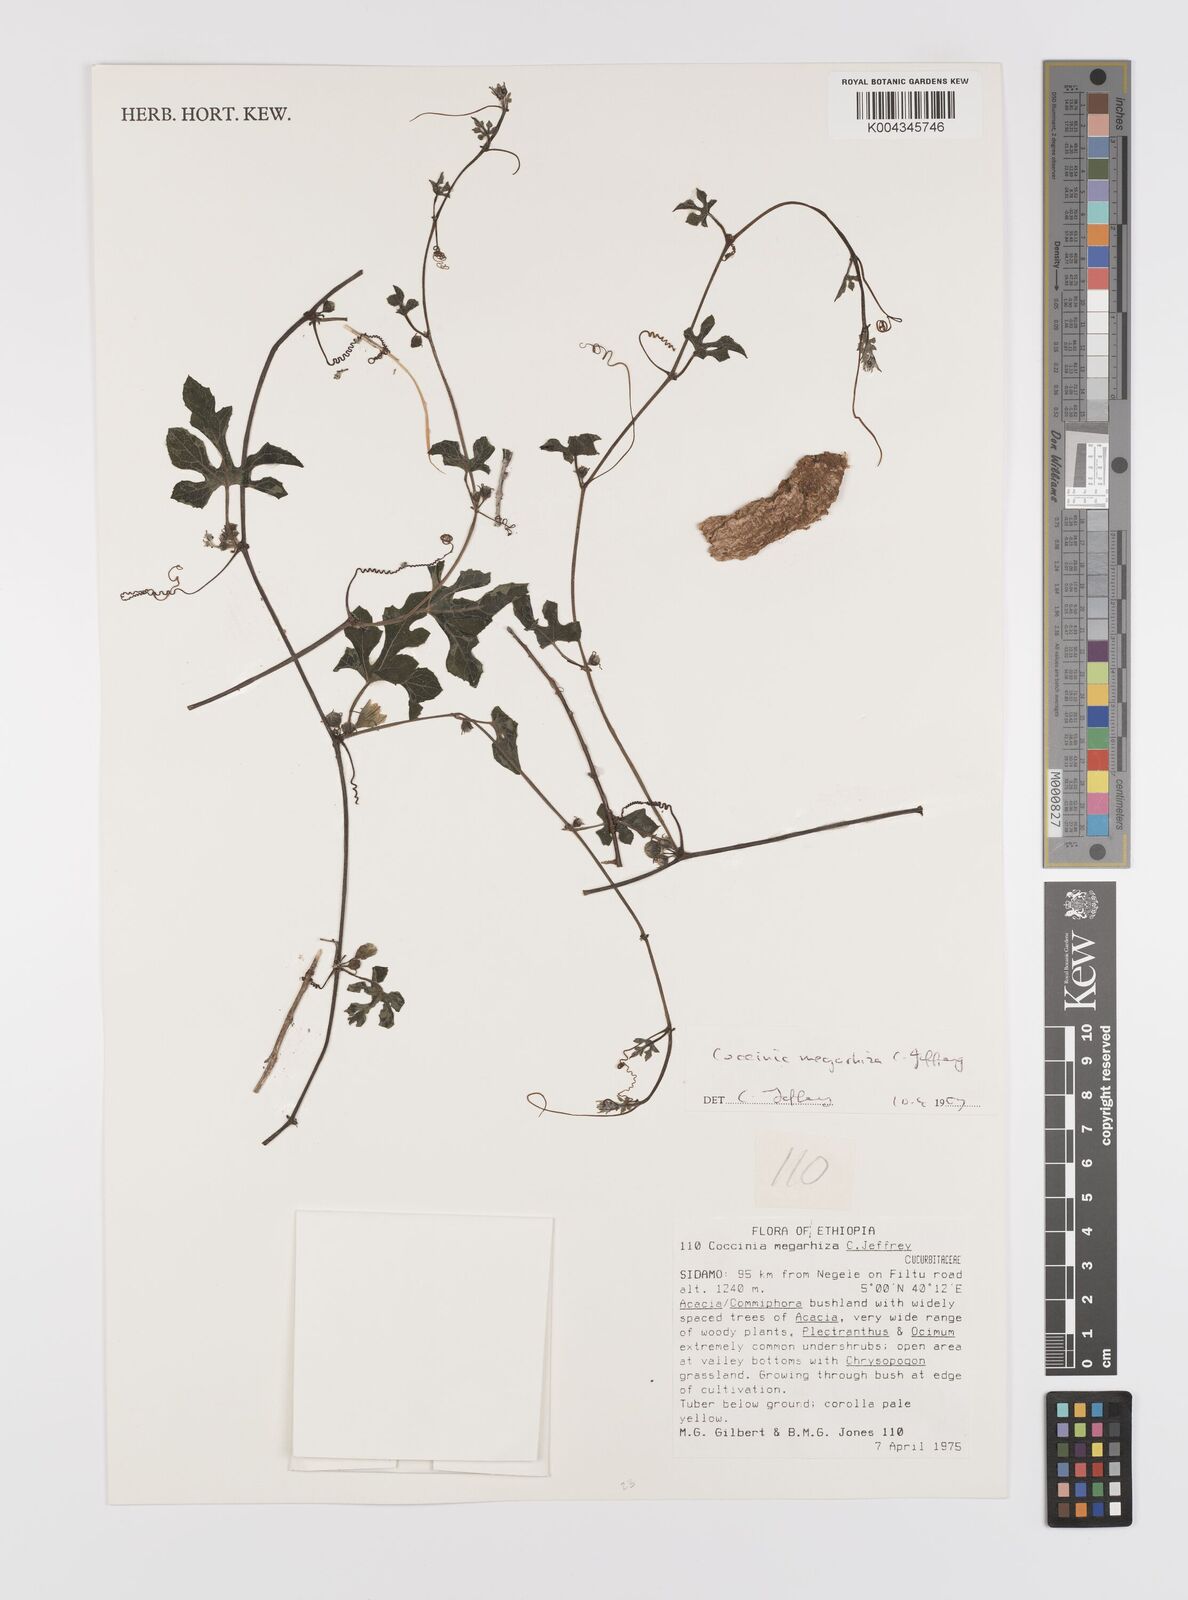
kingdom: Plantae
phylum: Tracheophyta
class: Magnoliopsida
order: Cucurbitales
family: Cucurbitaceae
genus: Coccinia
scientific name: Coccinia megarrhiza
